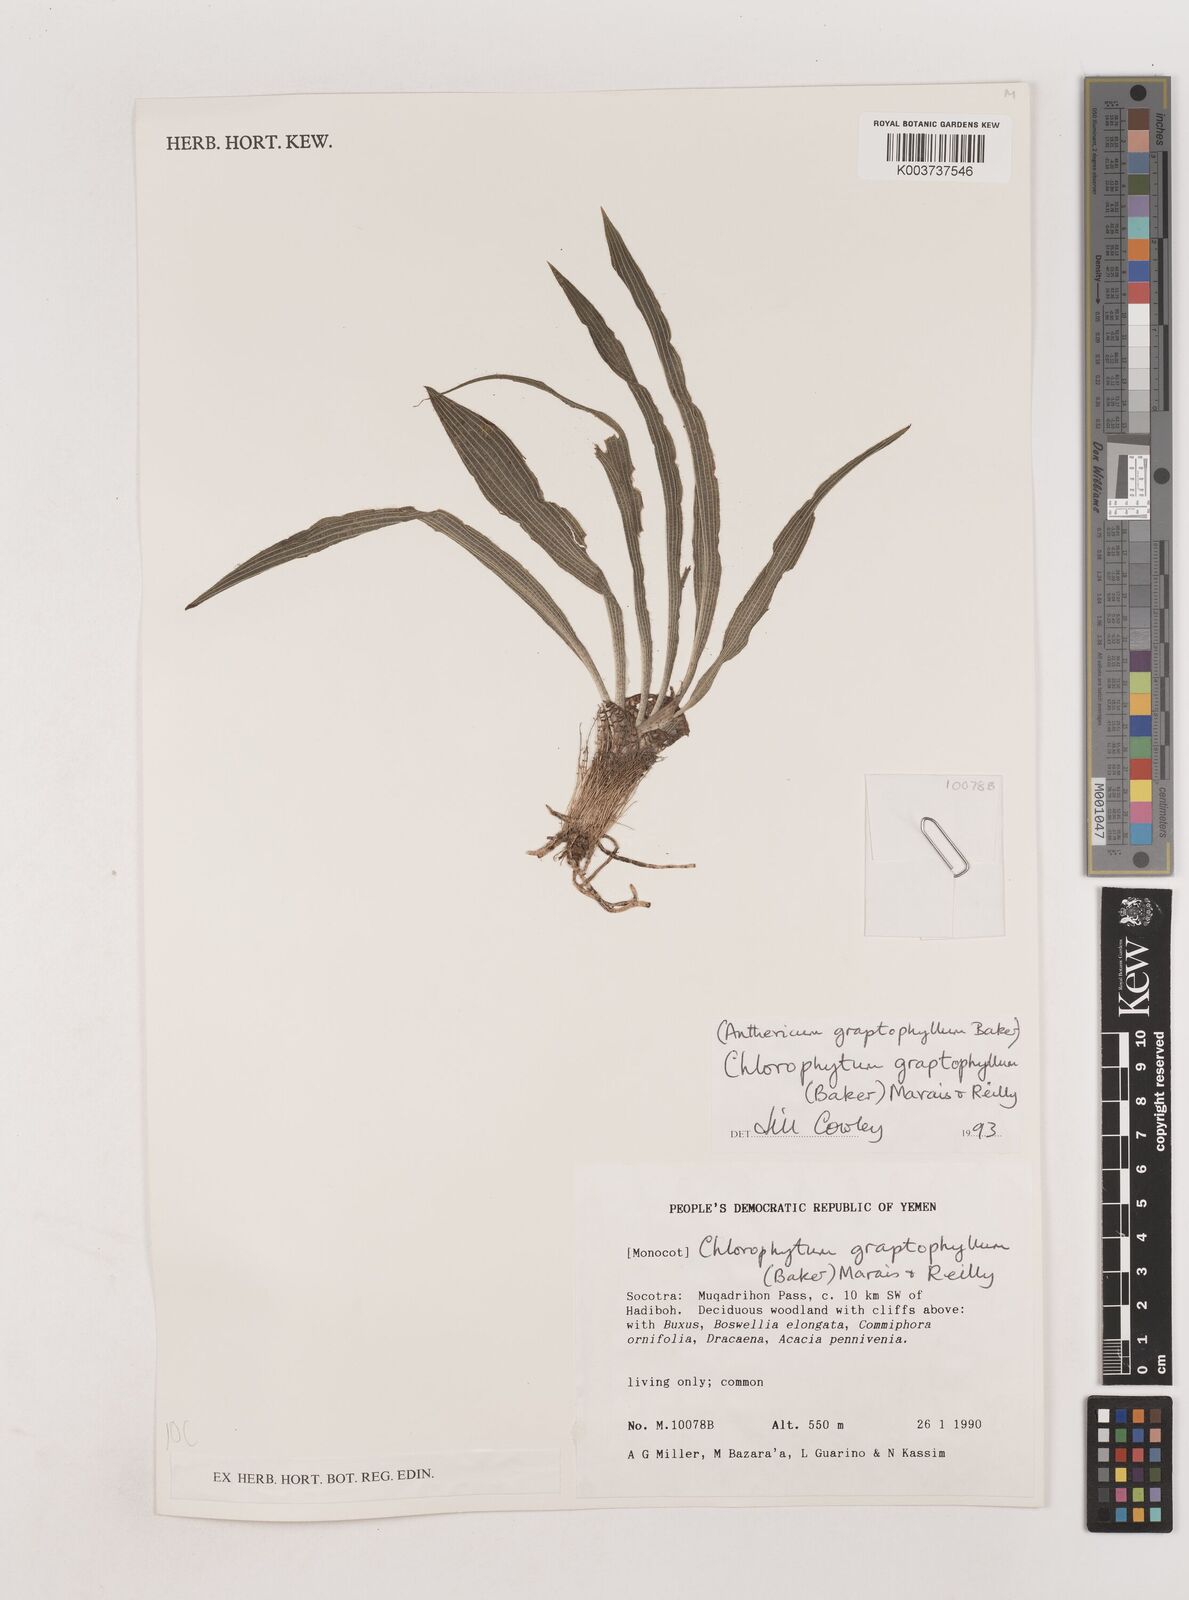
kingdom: Plantae
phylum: Tracheophyta
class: Liliopsida
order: Asparagales
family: Asparagaceae
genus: Chlorophytum
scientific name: Chlorophytum graptophyllum
